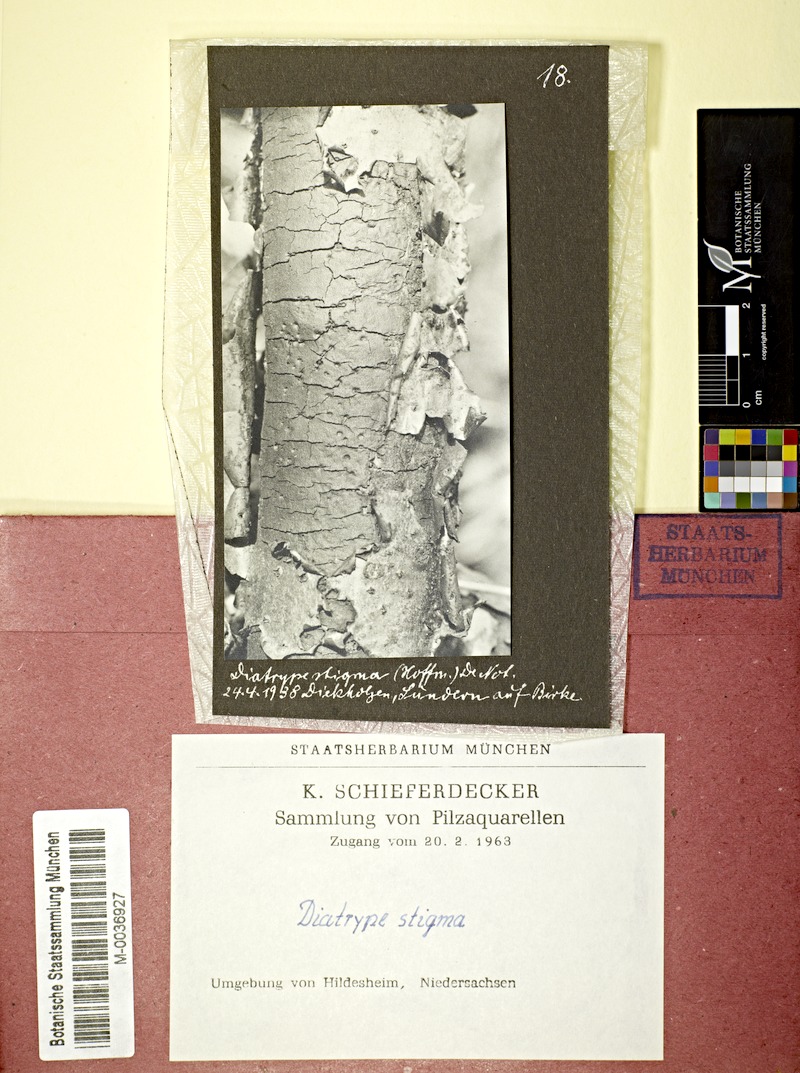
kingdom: Plantae
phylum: Tracheophyta
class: Magnoliopsida
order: Fagales
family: Betulaceae
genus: Betula
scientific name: Betula
